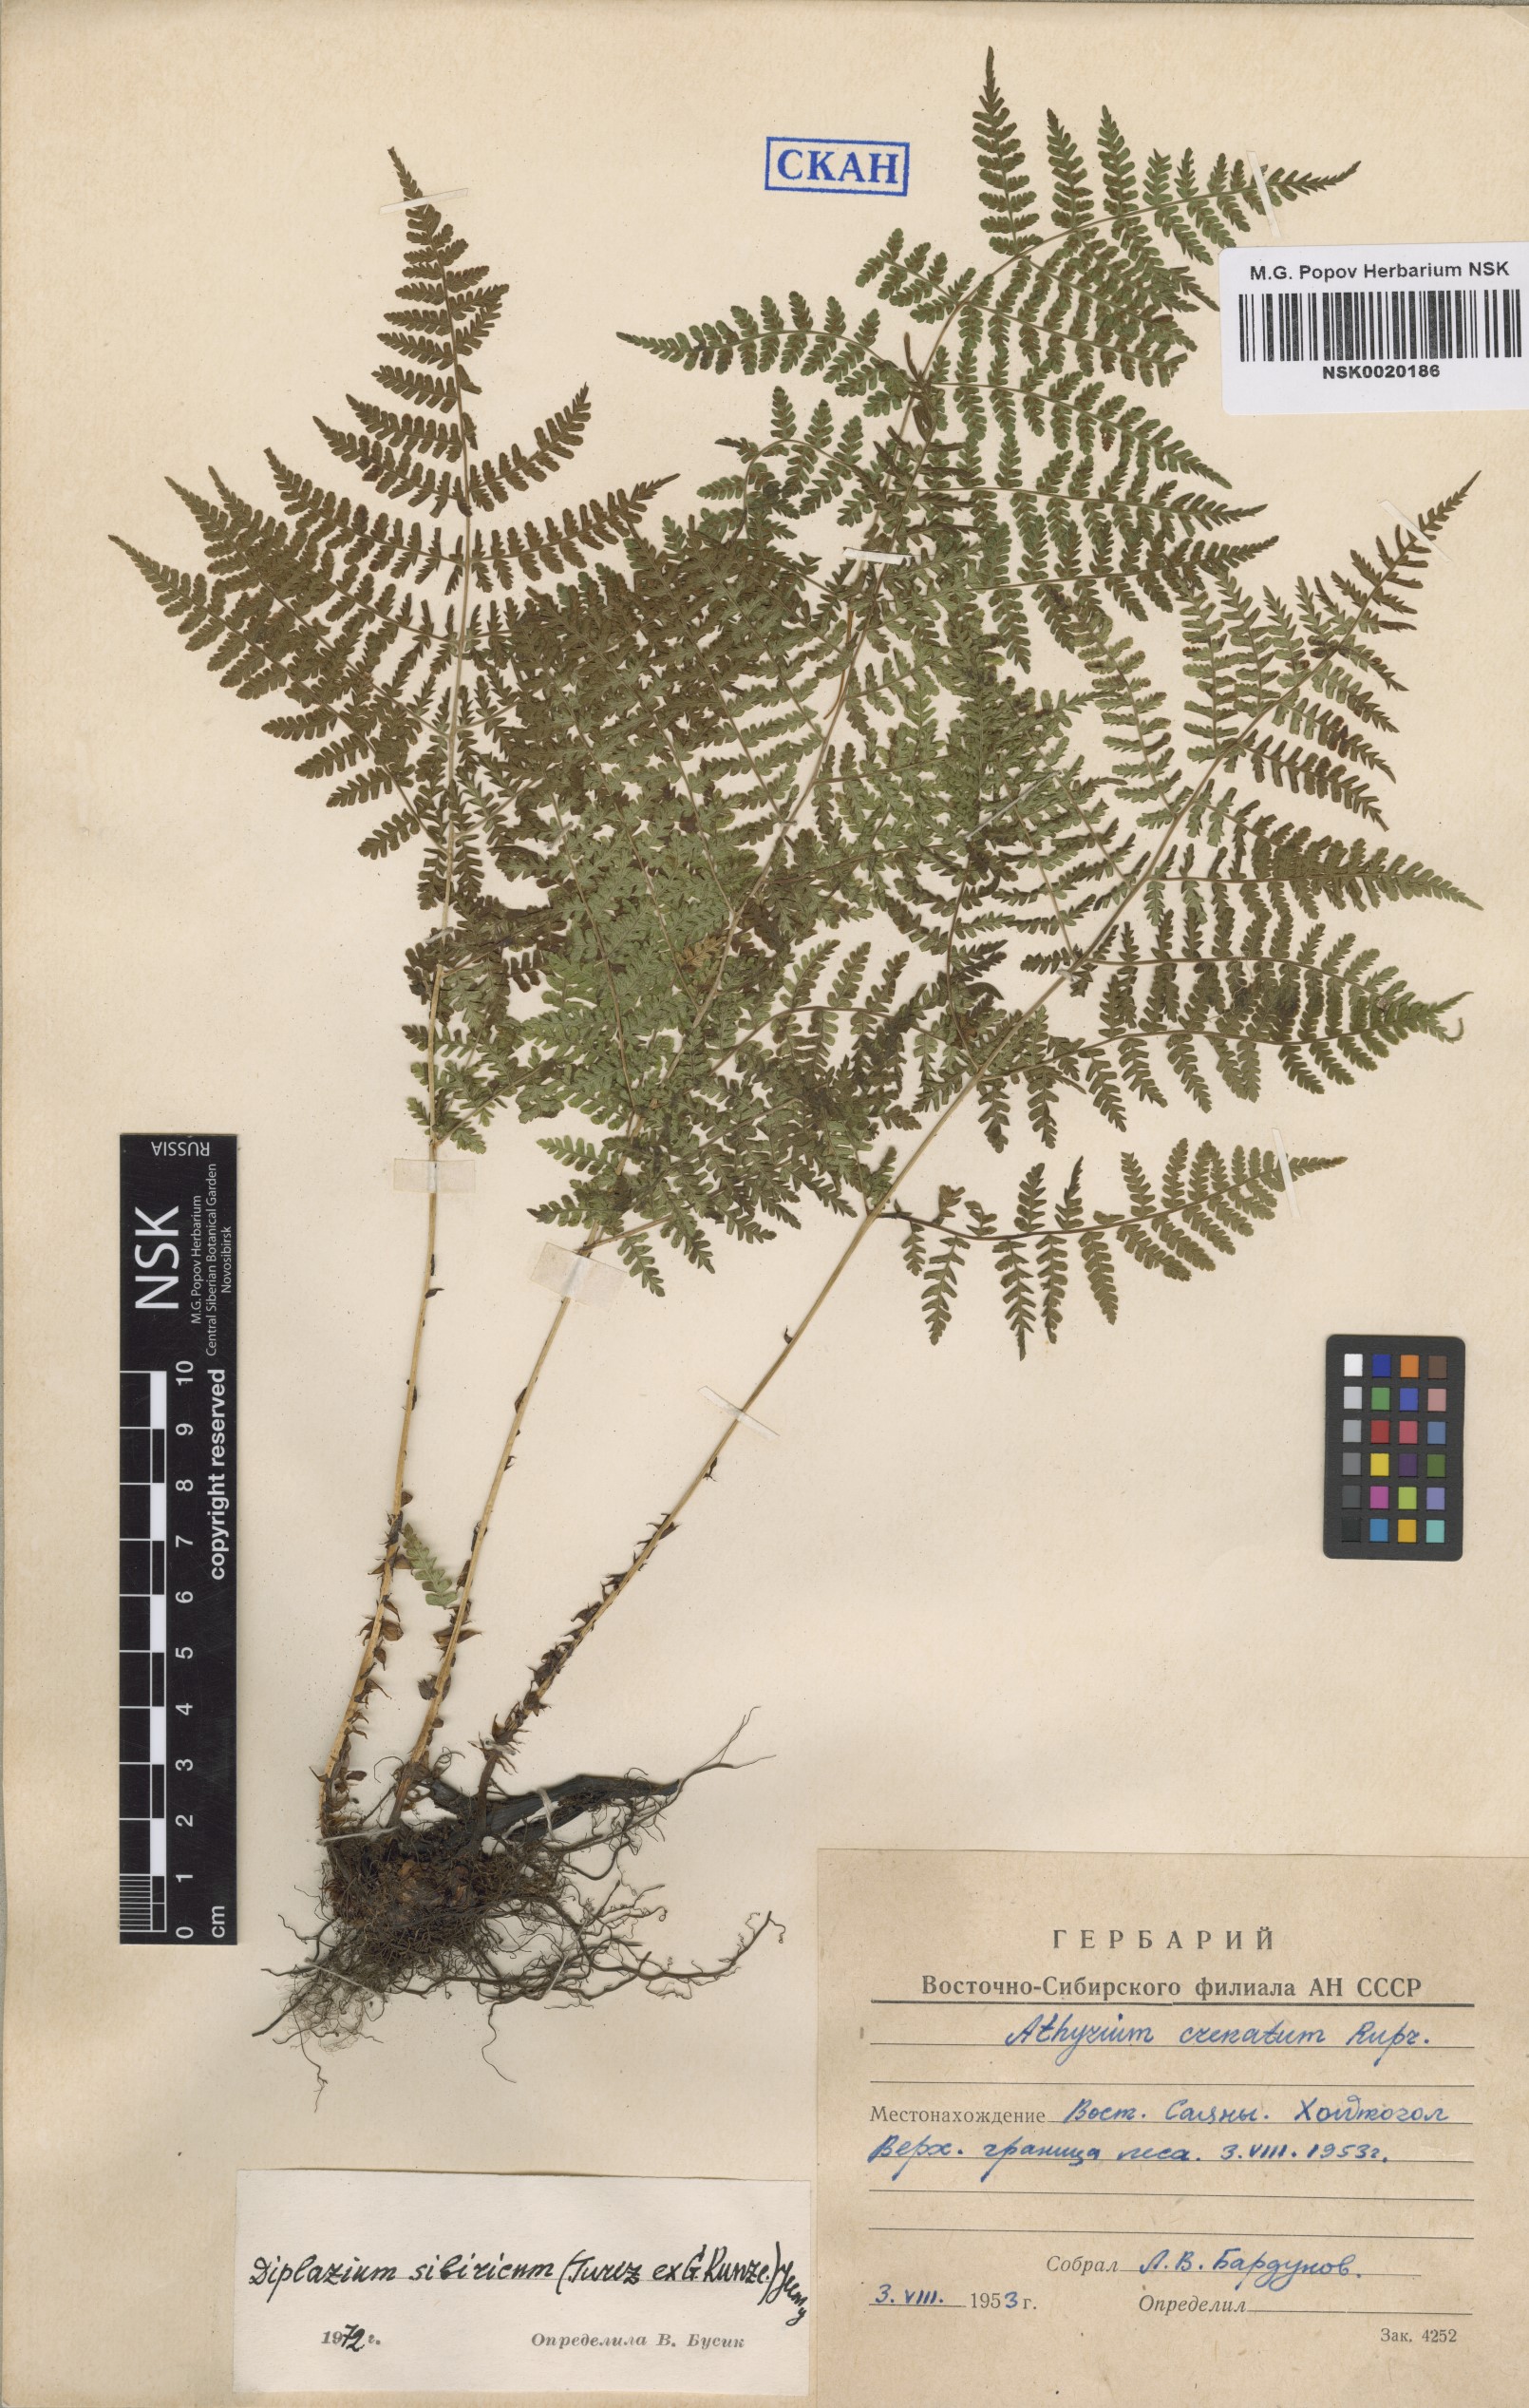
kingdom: Plantae
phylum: Tracheophyta
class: Polypodiopsida
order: Polypodiales
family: Athyriaceae
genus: Diplazium
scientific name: Diplazium sibiricum
